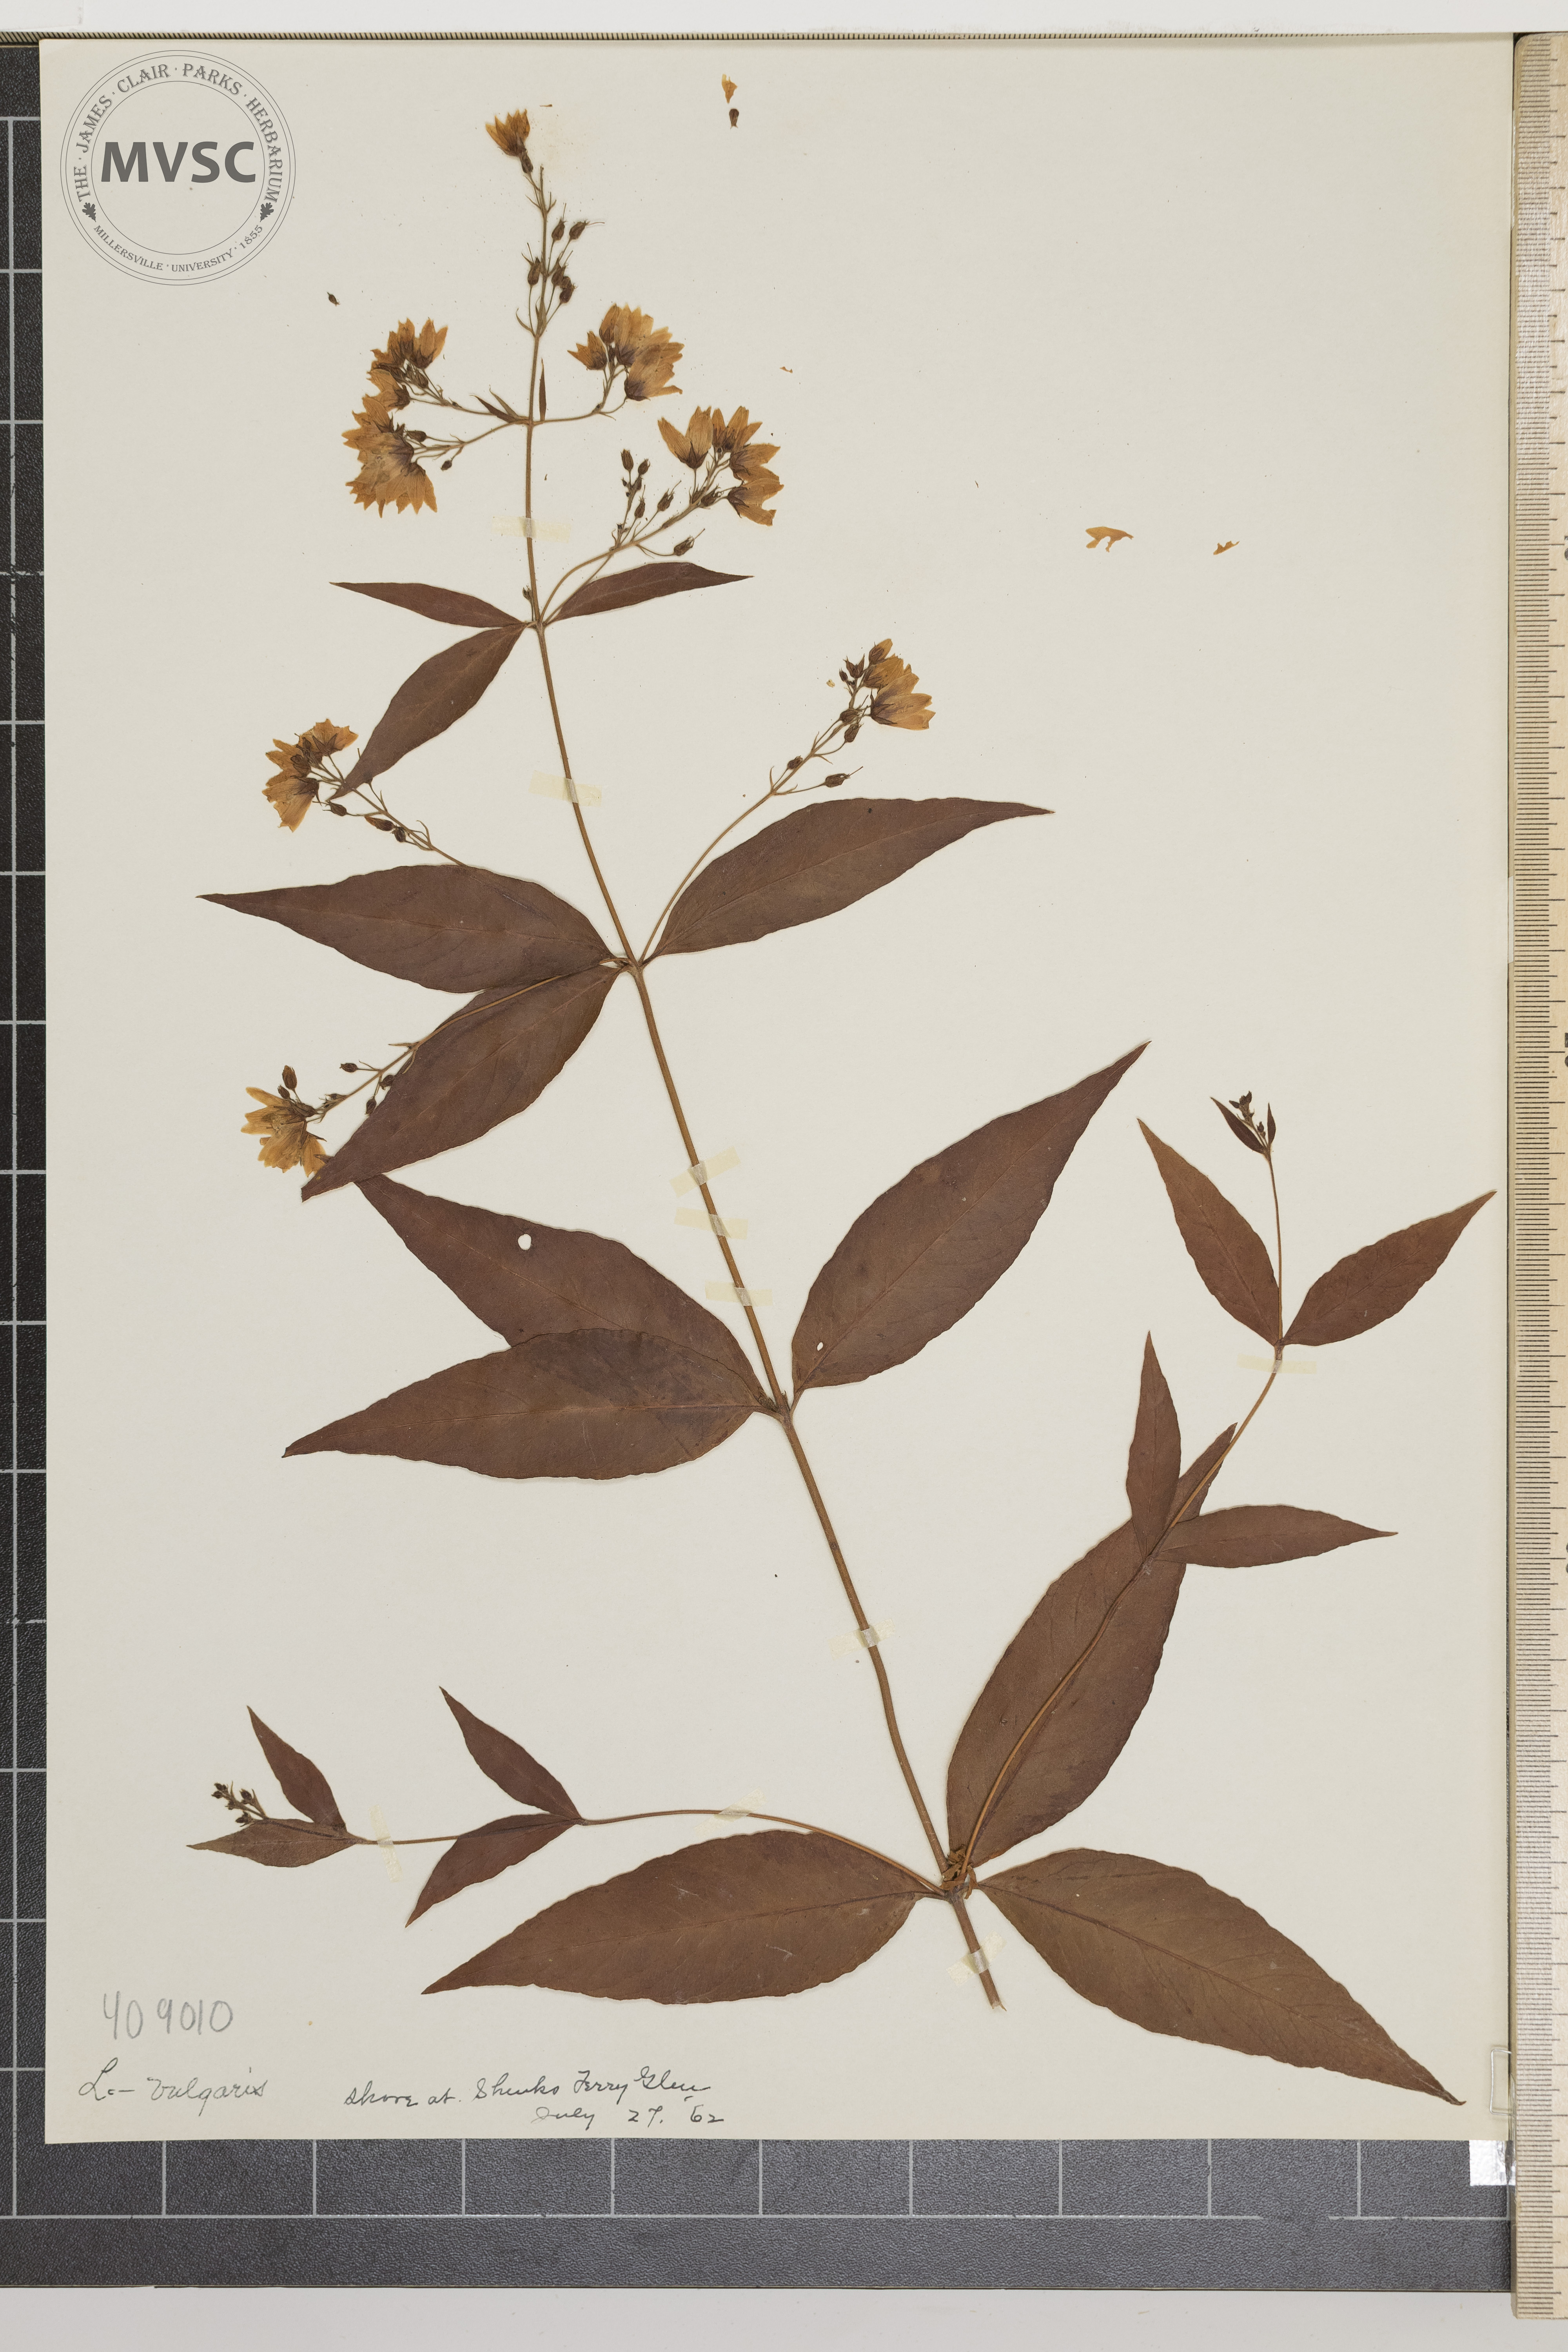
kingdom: Plantae
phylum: Tracheophyta
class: Magnoliopsida
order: Ericales
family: Primulaceae
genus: Lysimachia
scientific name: Lysimachia vulgaris
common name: Loosestrife
